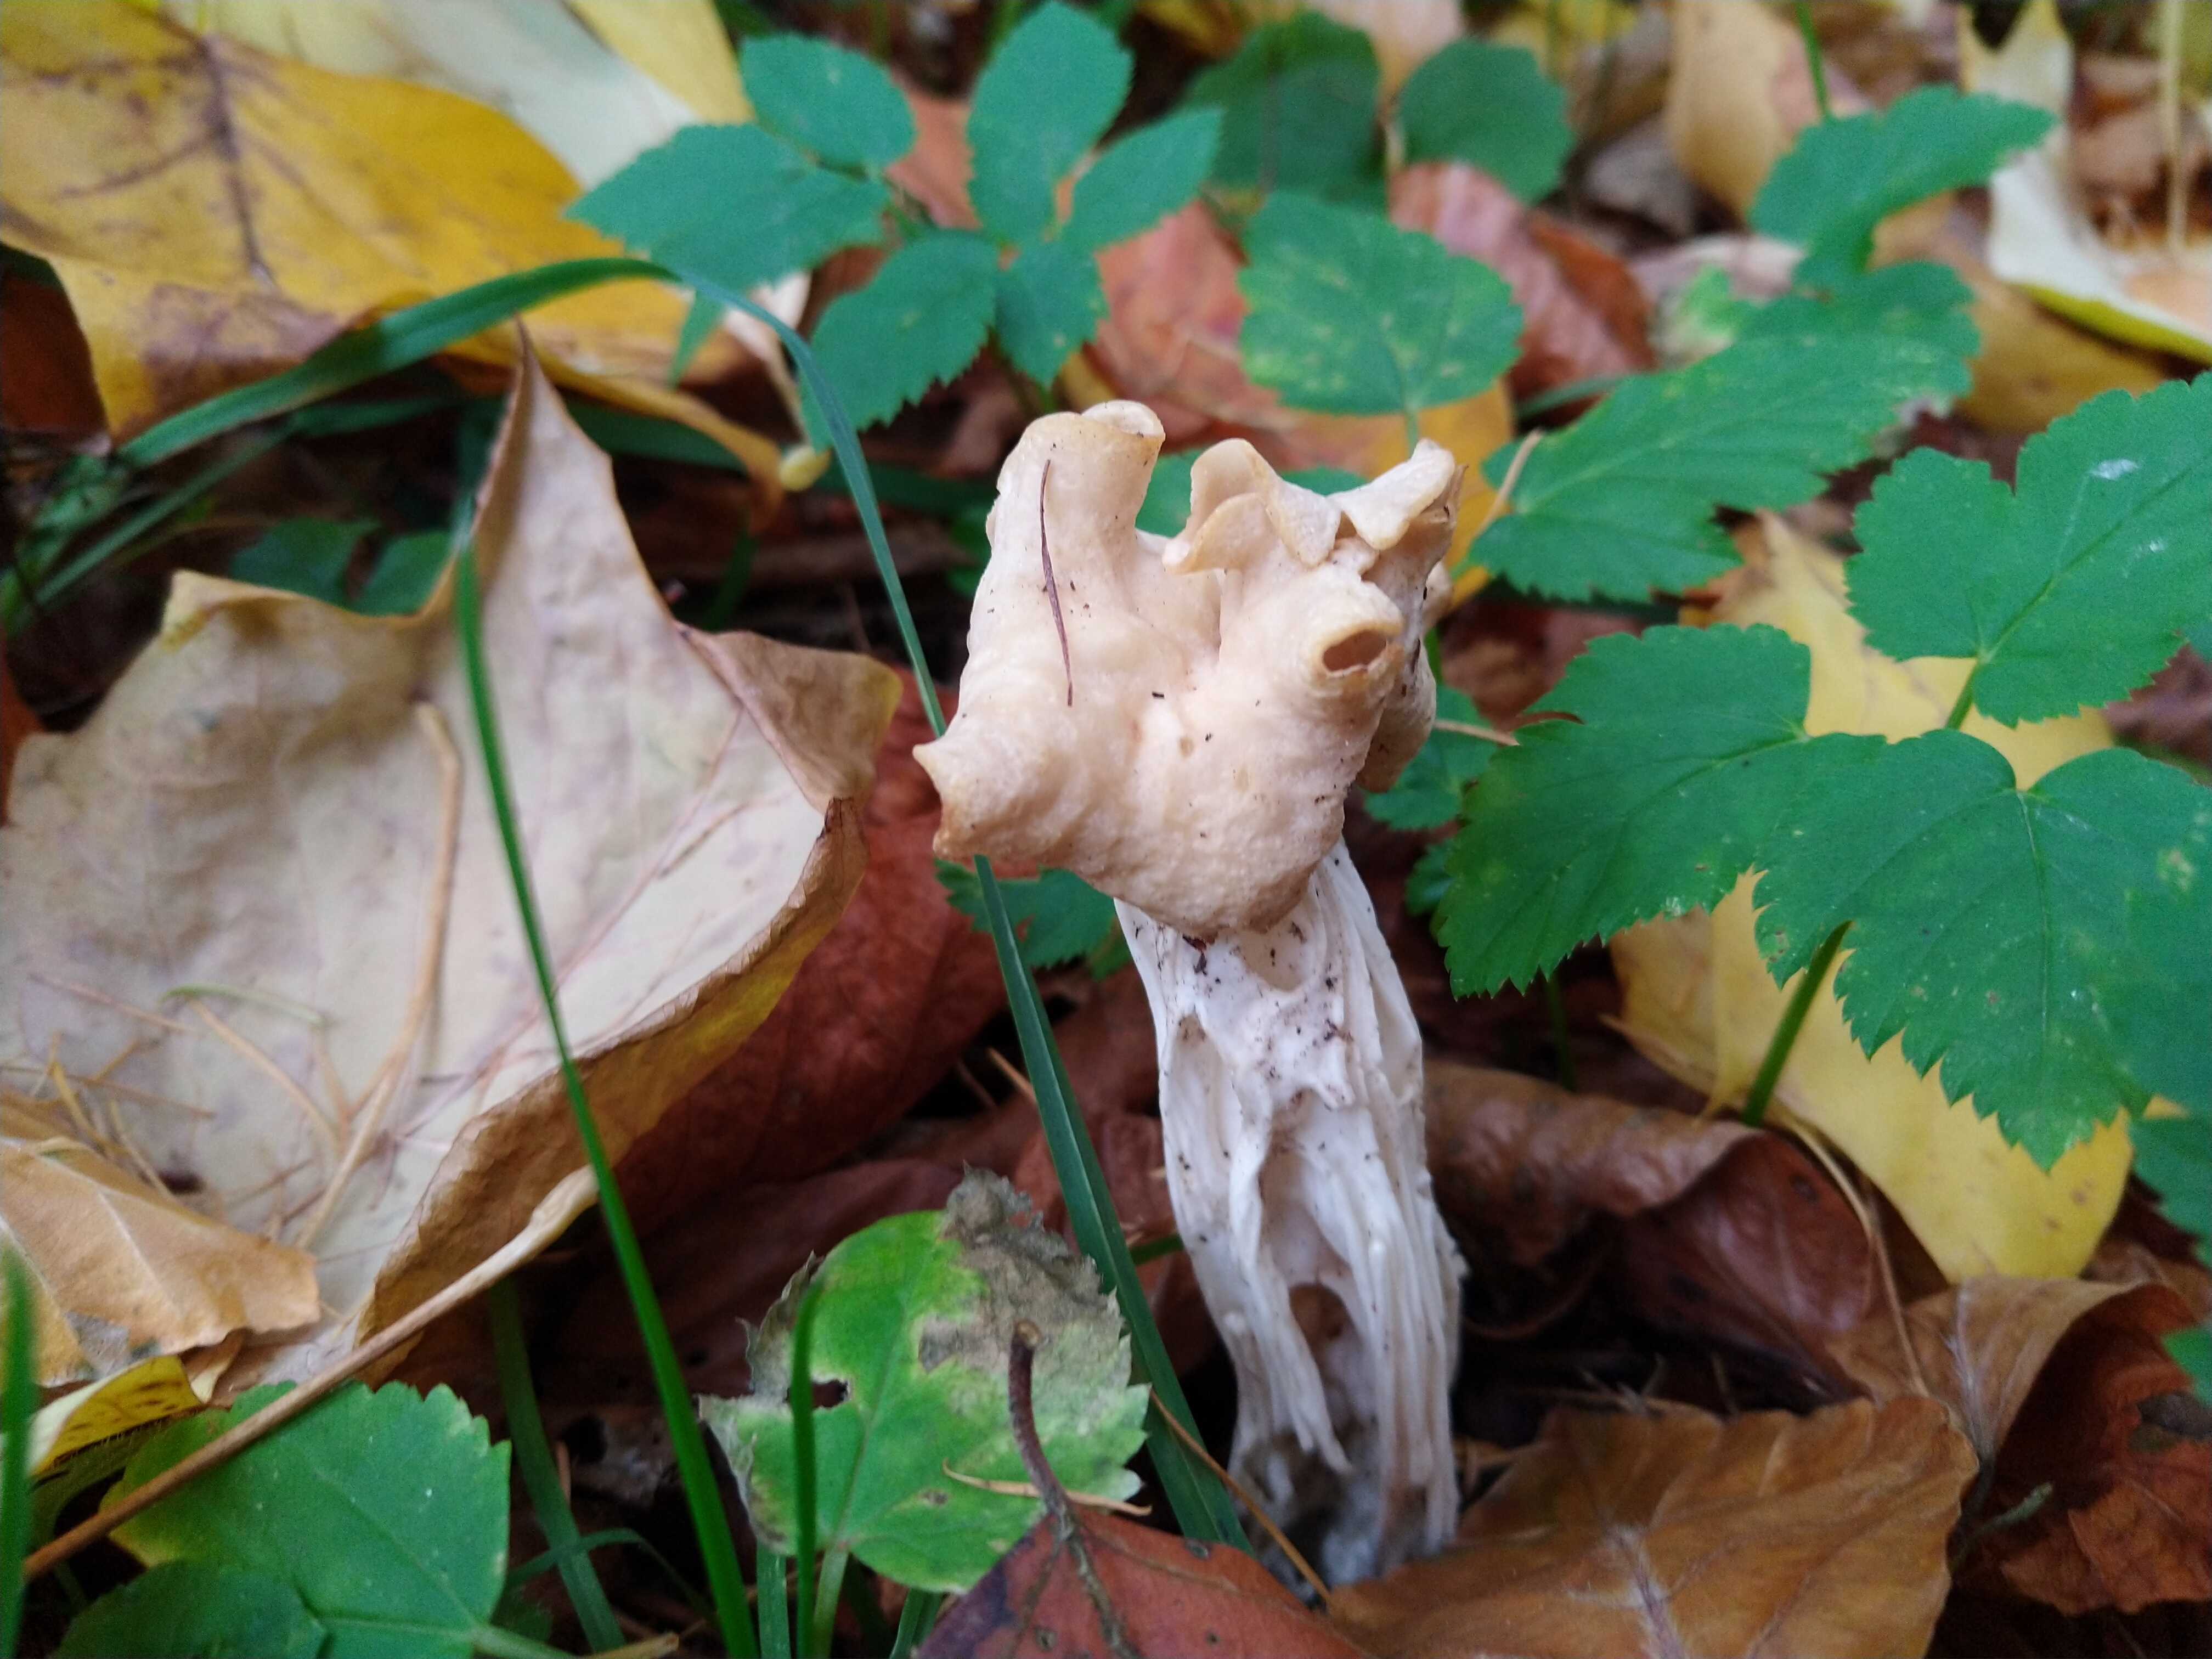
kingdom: Fungi
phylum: Ascomycota
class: Pezizomycetes
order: Pezizales
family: Helvellaceae
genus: Helvella
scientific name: Helvella crispa
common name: kruset foldhat
